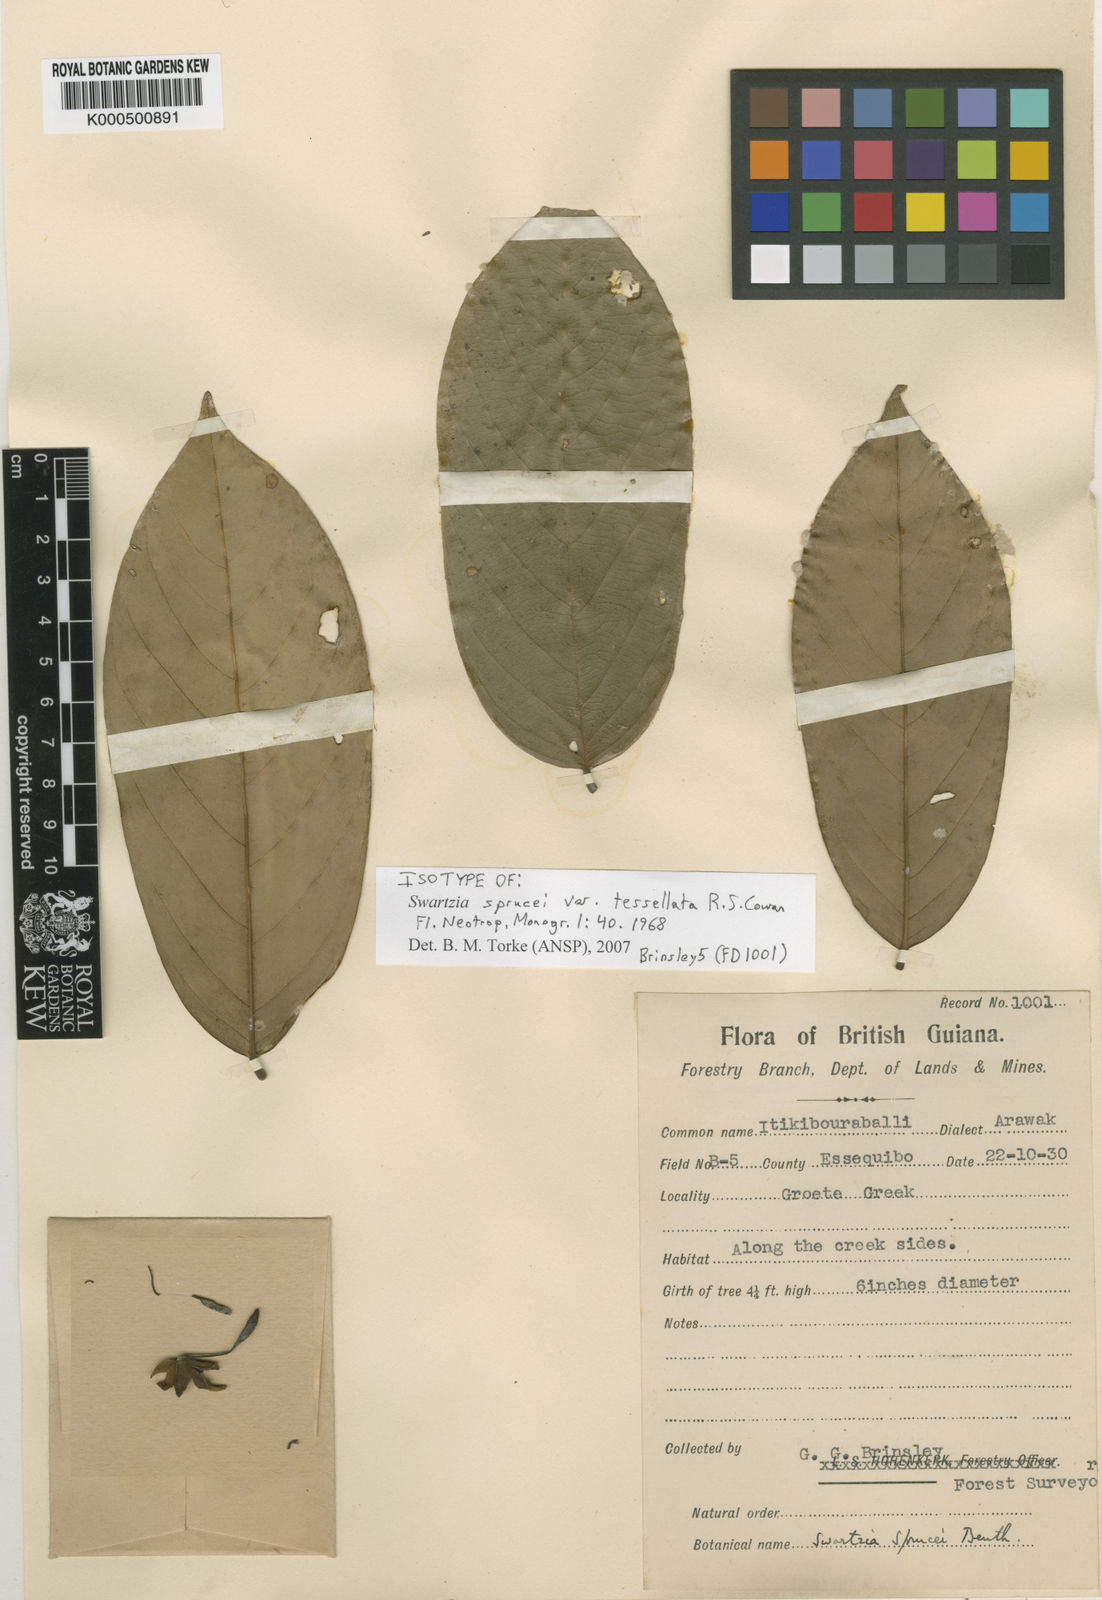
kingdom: Plantae
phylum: Tracheophyta
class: Magnoliopsida
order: Fabales
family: Fabaceae
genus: Swartzia
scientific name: Swartzia sprucei
